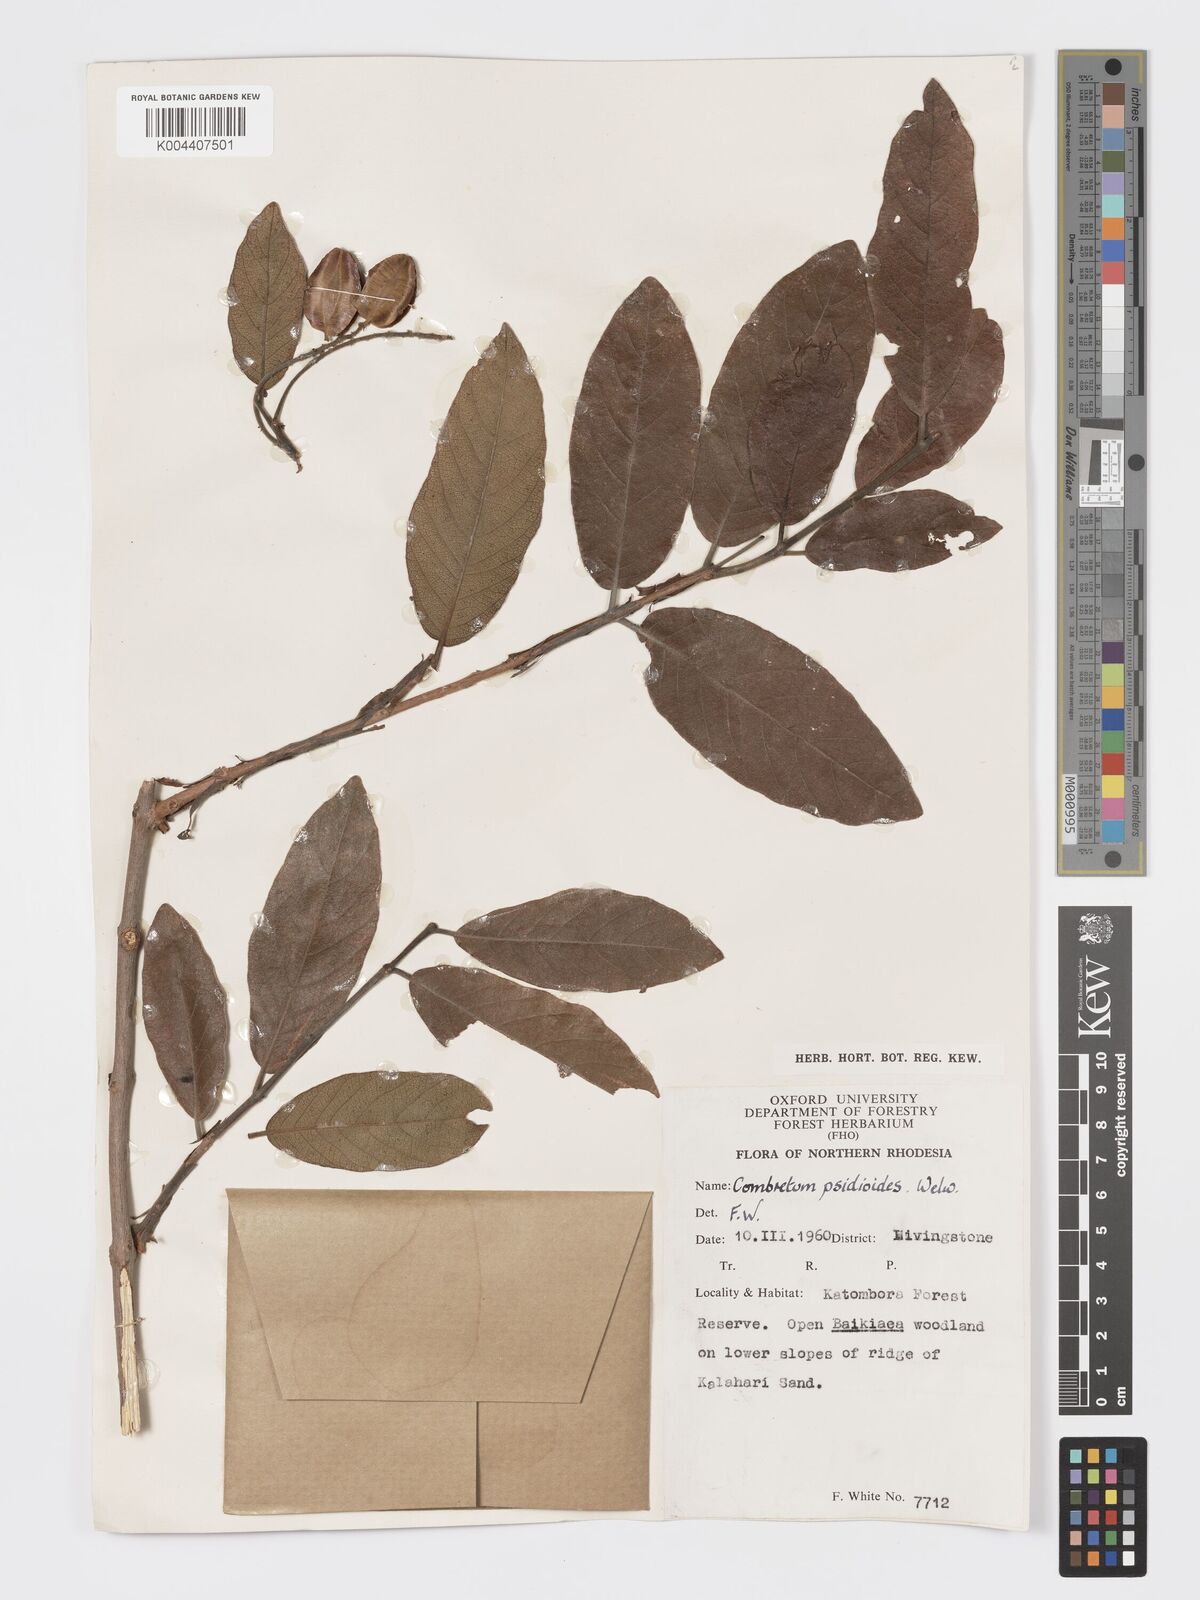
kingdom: Plantae
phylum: Tracheophyta
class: Magnoliopsida
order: Myrtales
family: Combretaceae
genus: Combretum
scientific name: Combretum psidioides
